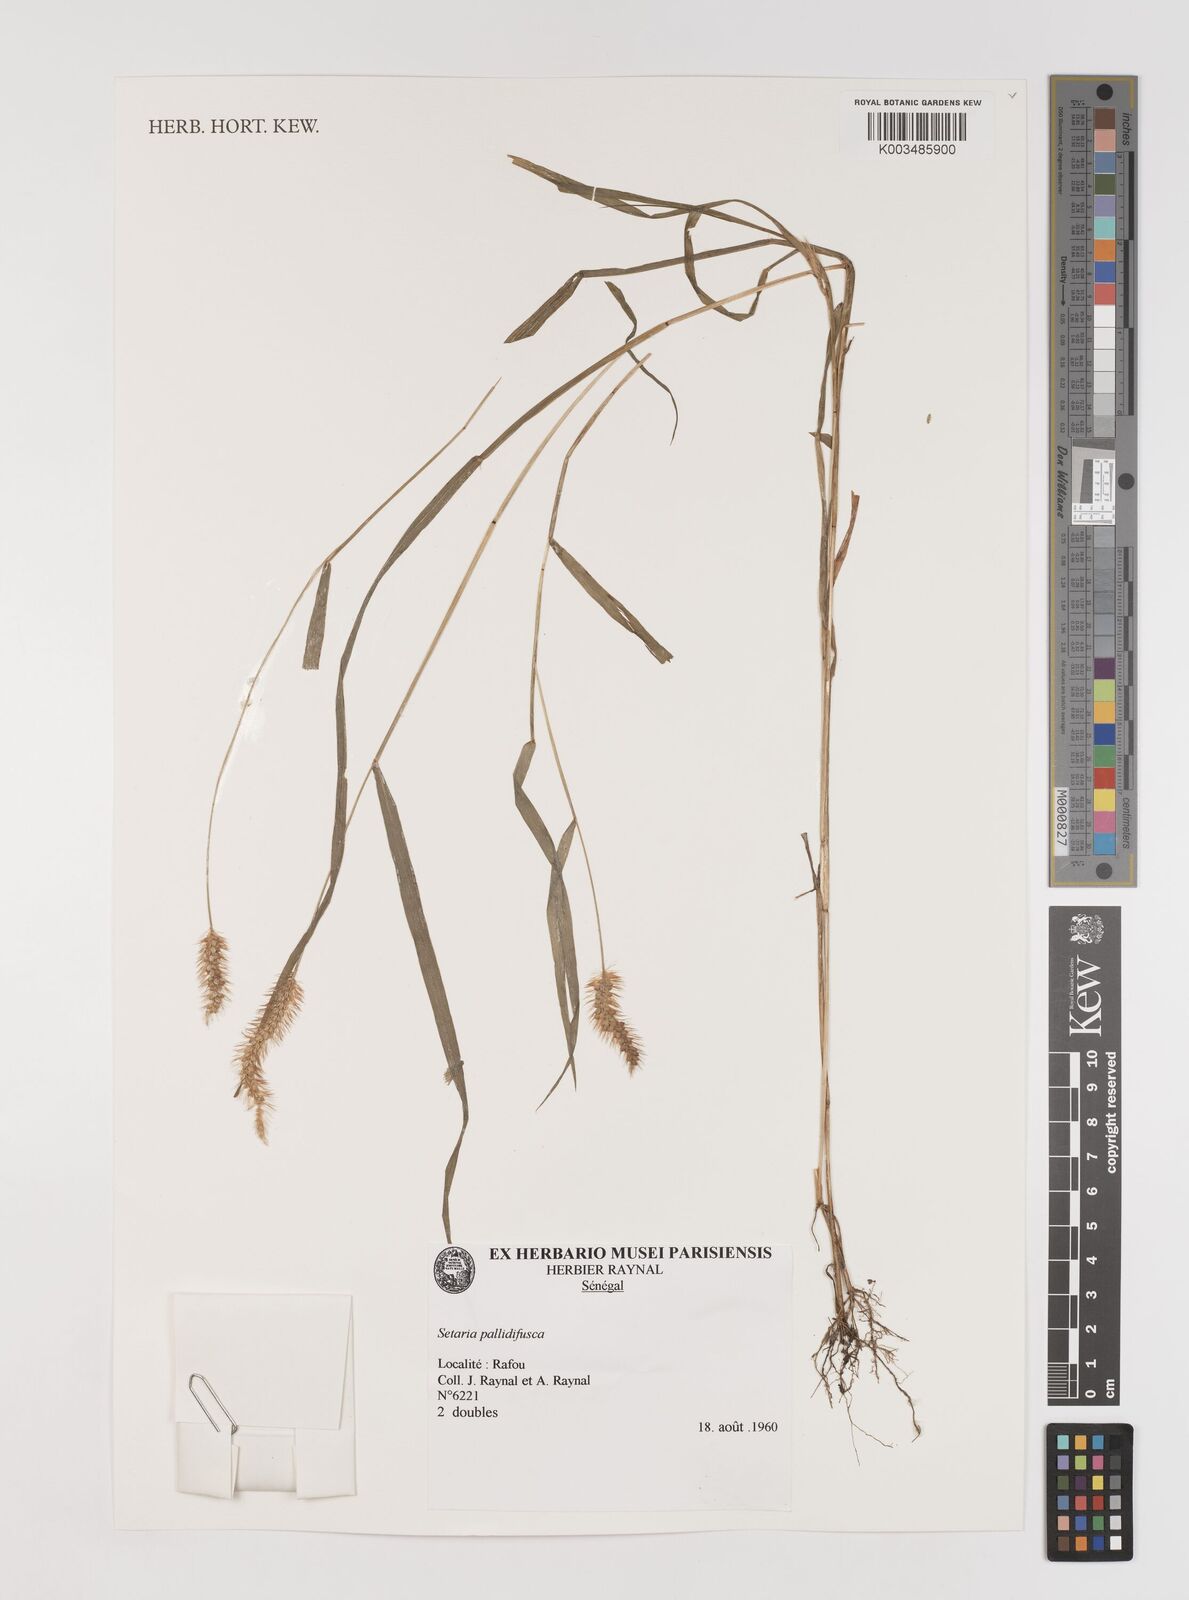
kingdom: Plantae
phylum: Tracheophyta
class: Liliopsida
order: Poales
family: Poaceae
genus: Setaria
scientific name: Setaria pumila
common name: Yellow bristle-grass
